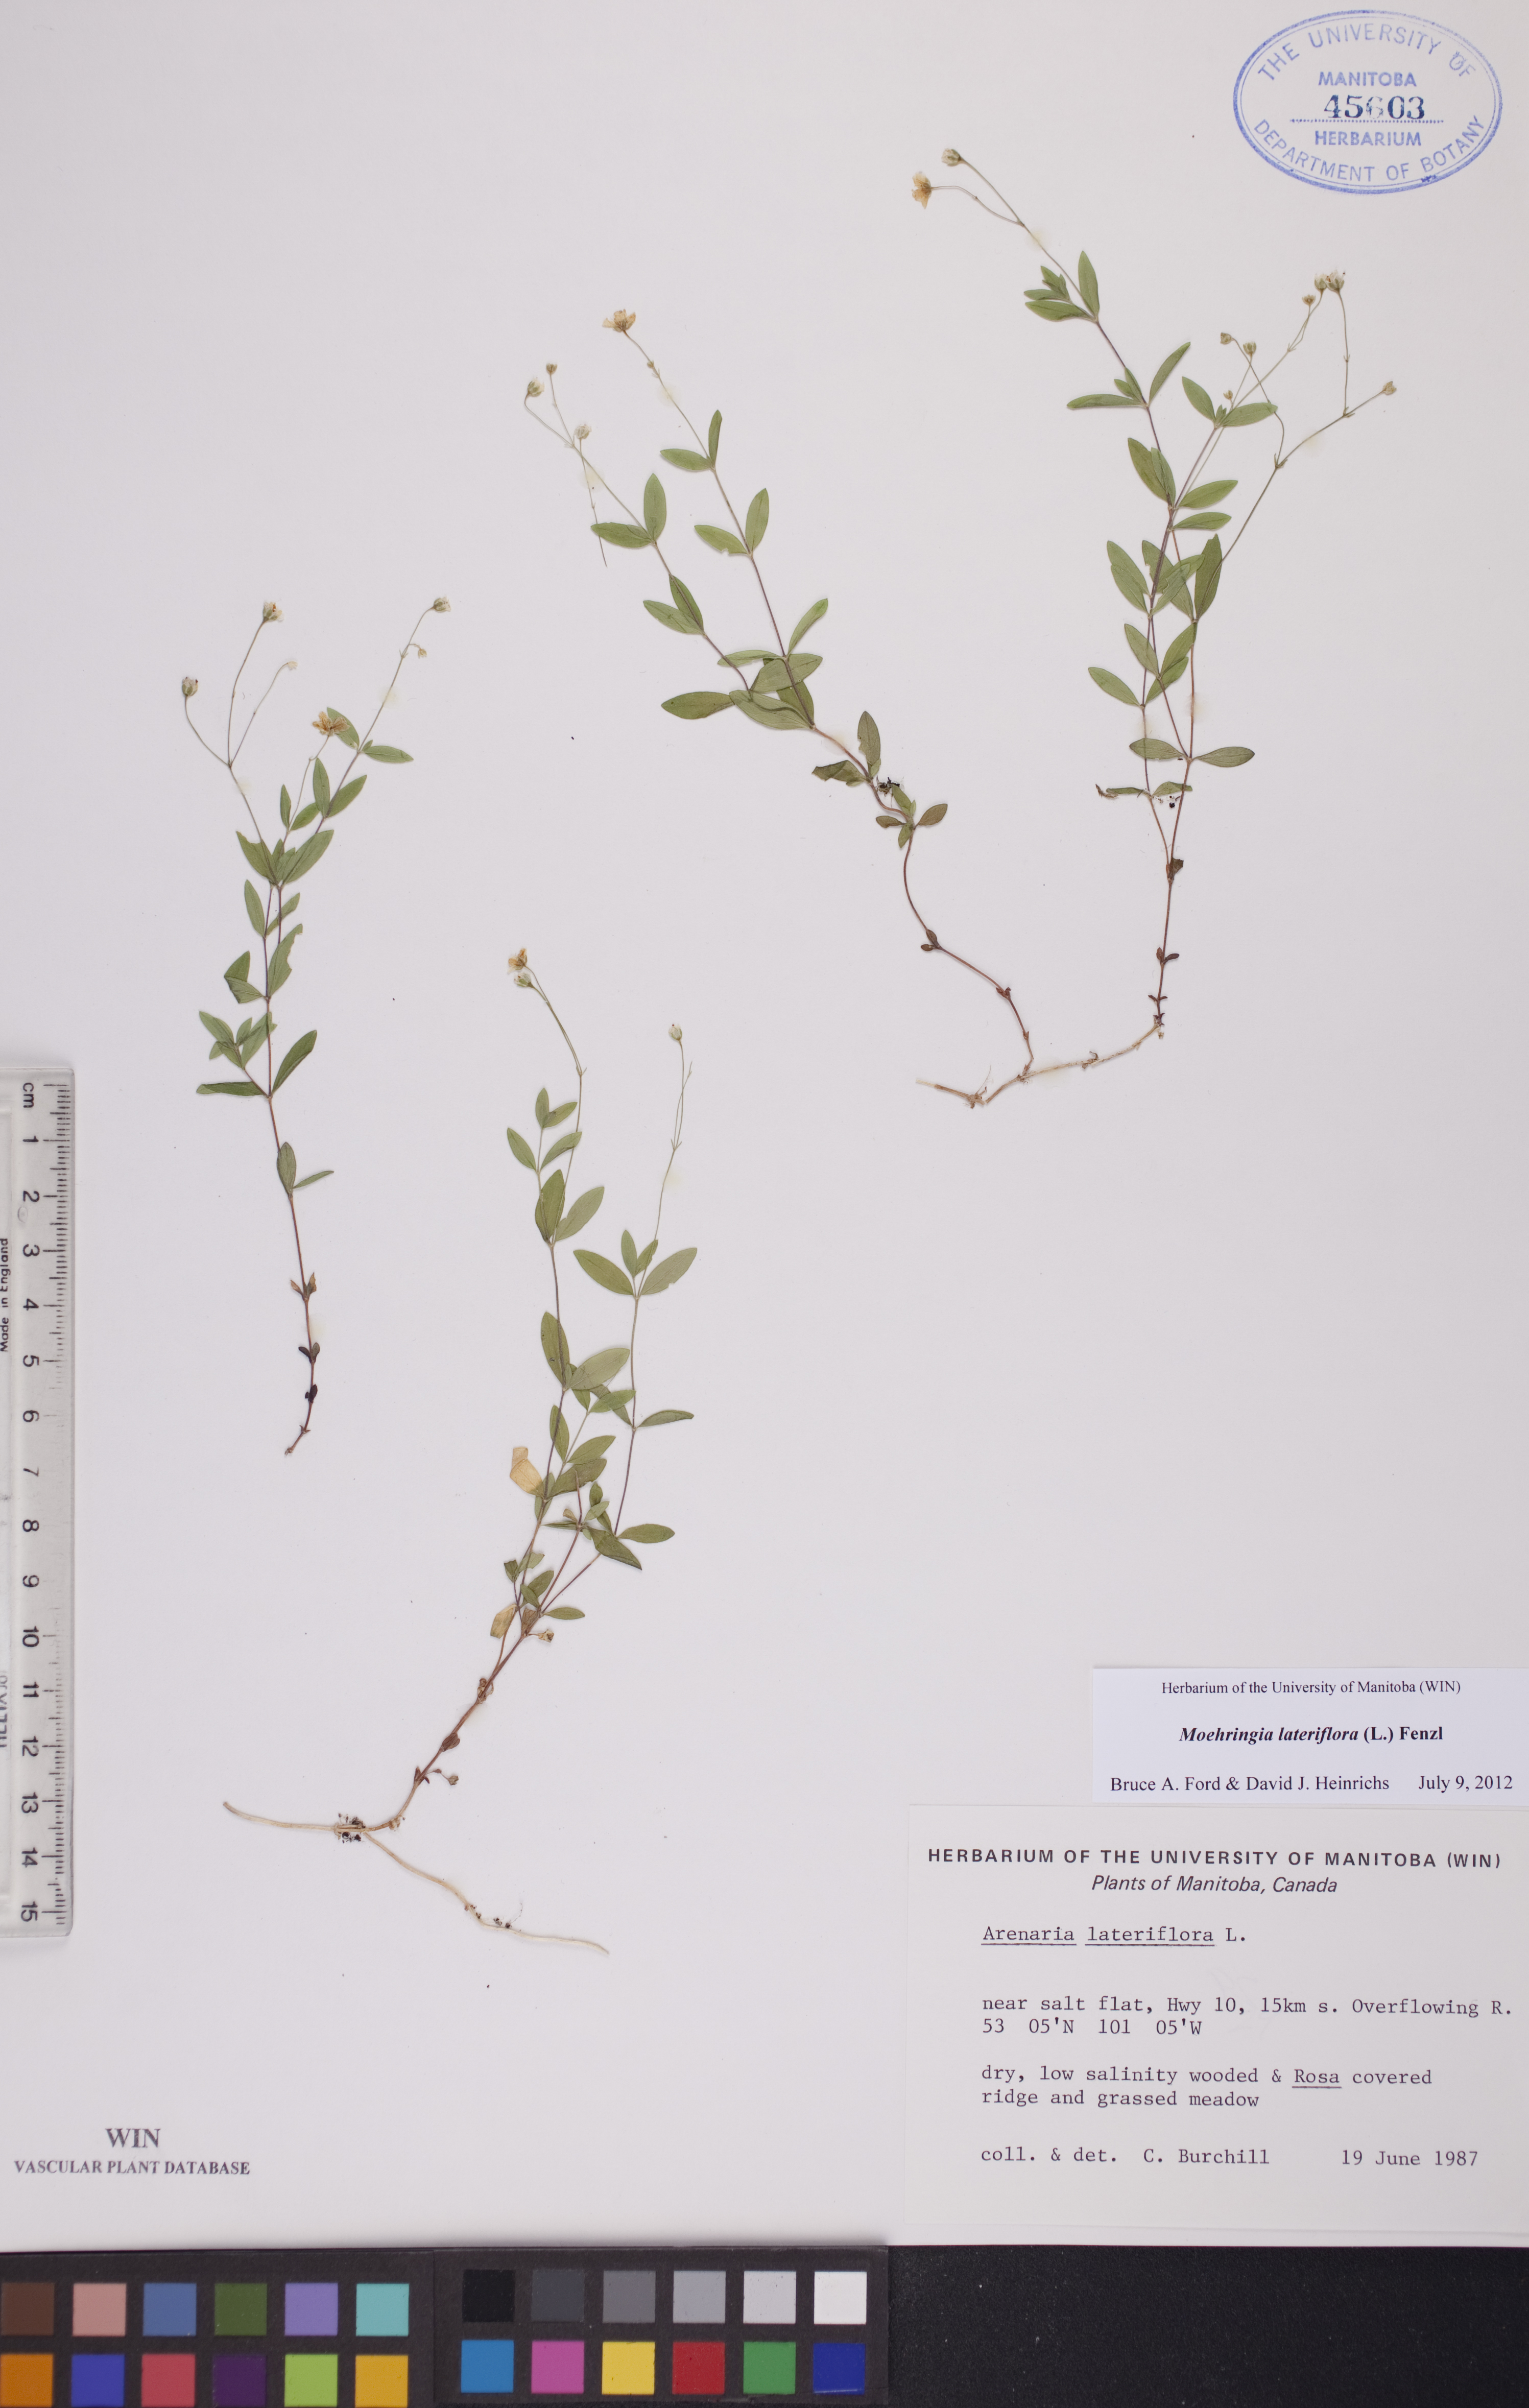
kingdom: Plantae
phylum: Tracheophyta
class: Magnoliopsida
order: Caryophyllales
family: Caryophyllaceae
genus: Moehringia
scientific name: Moehringia lateriflora
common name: Blunt-leaved sandwort
